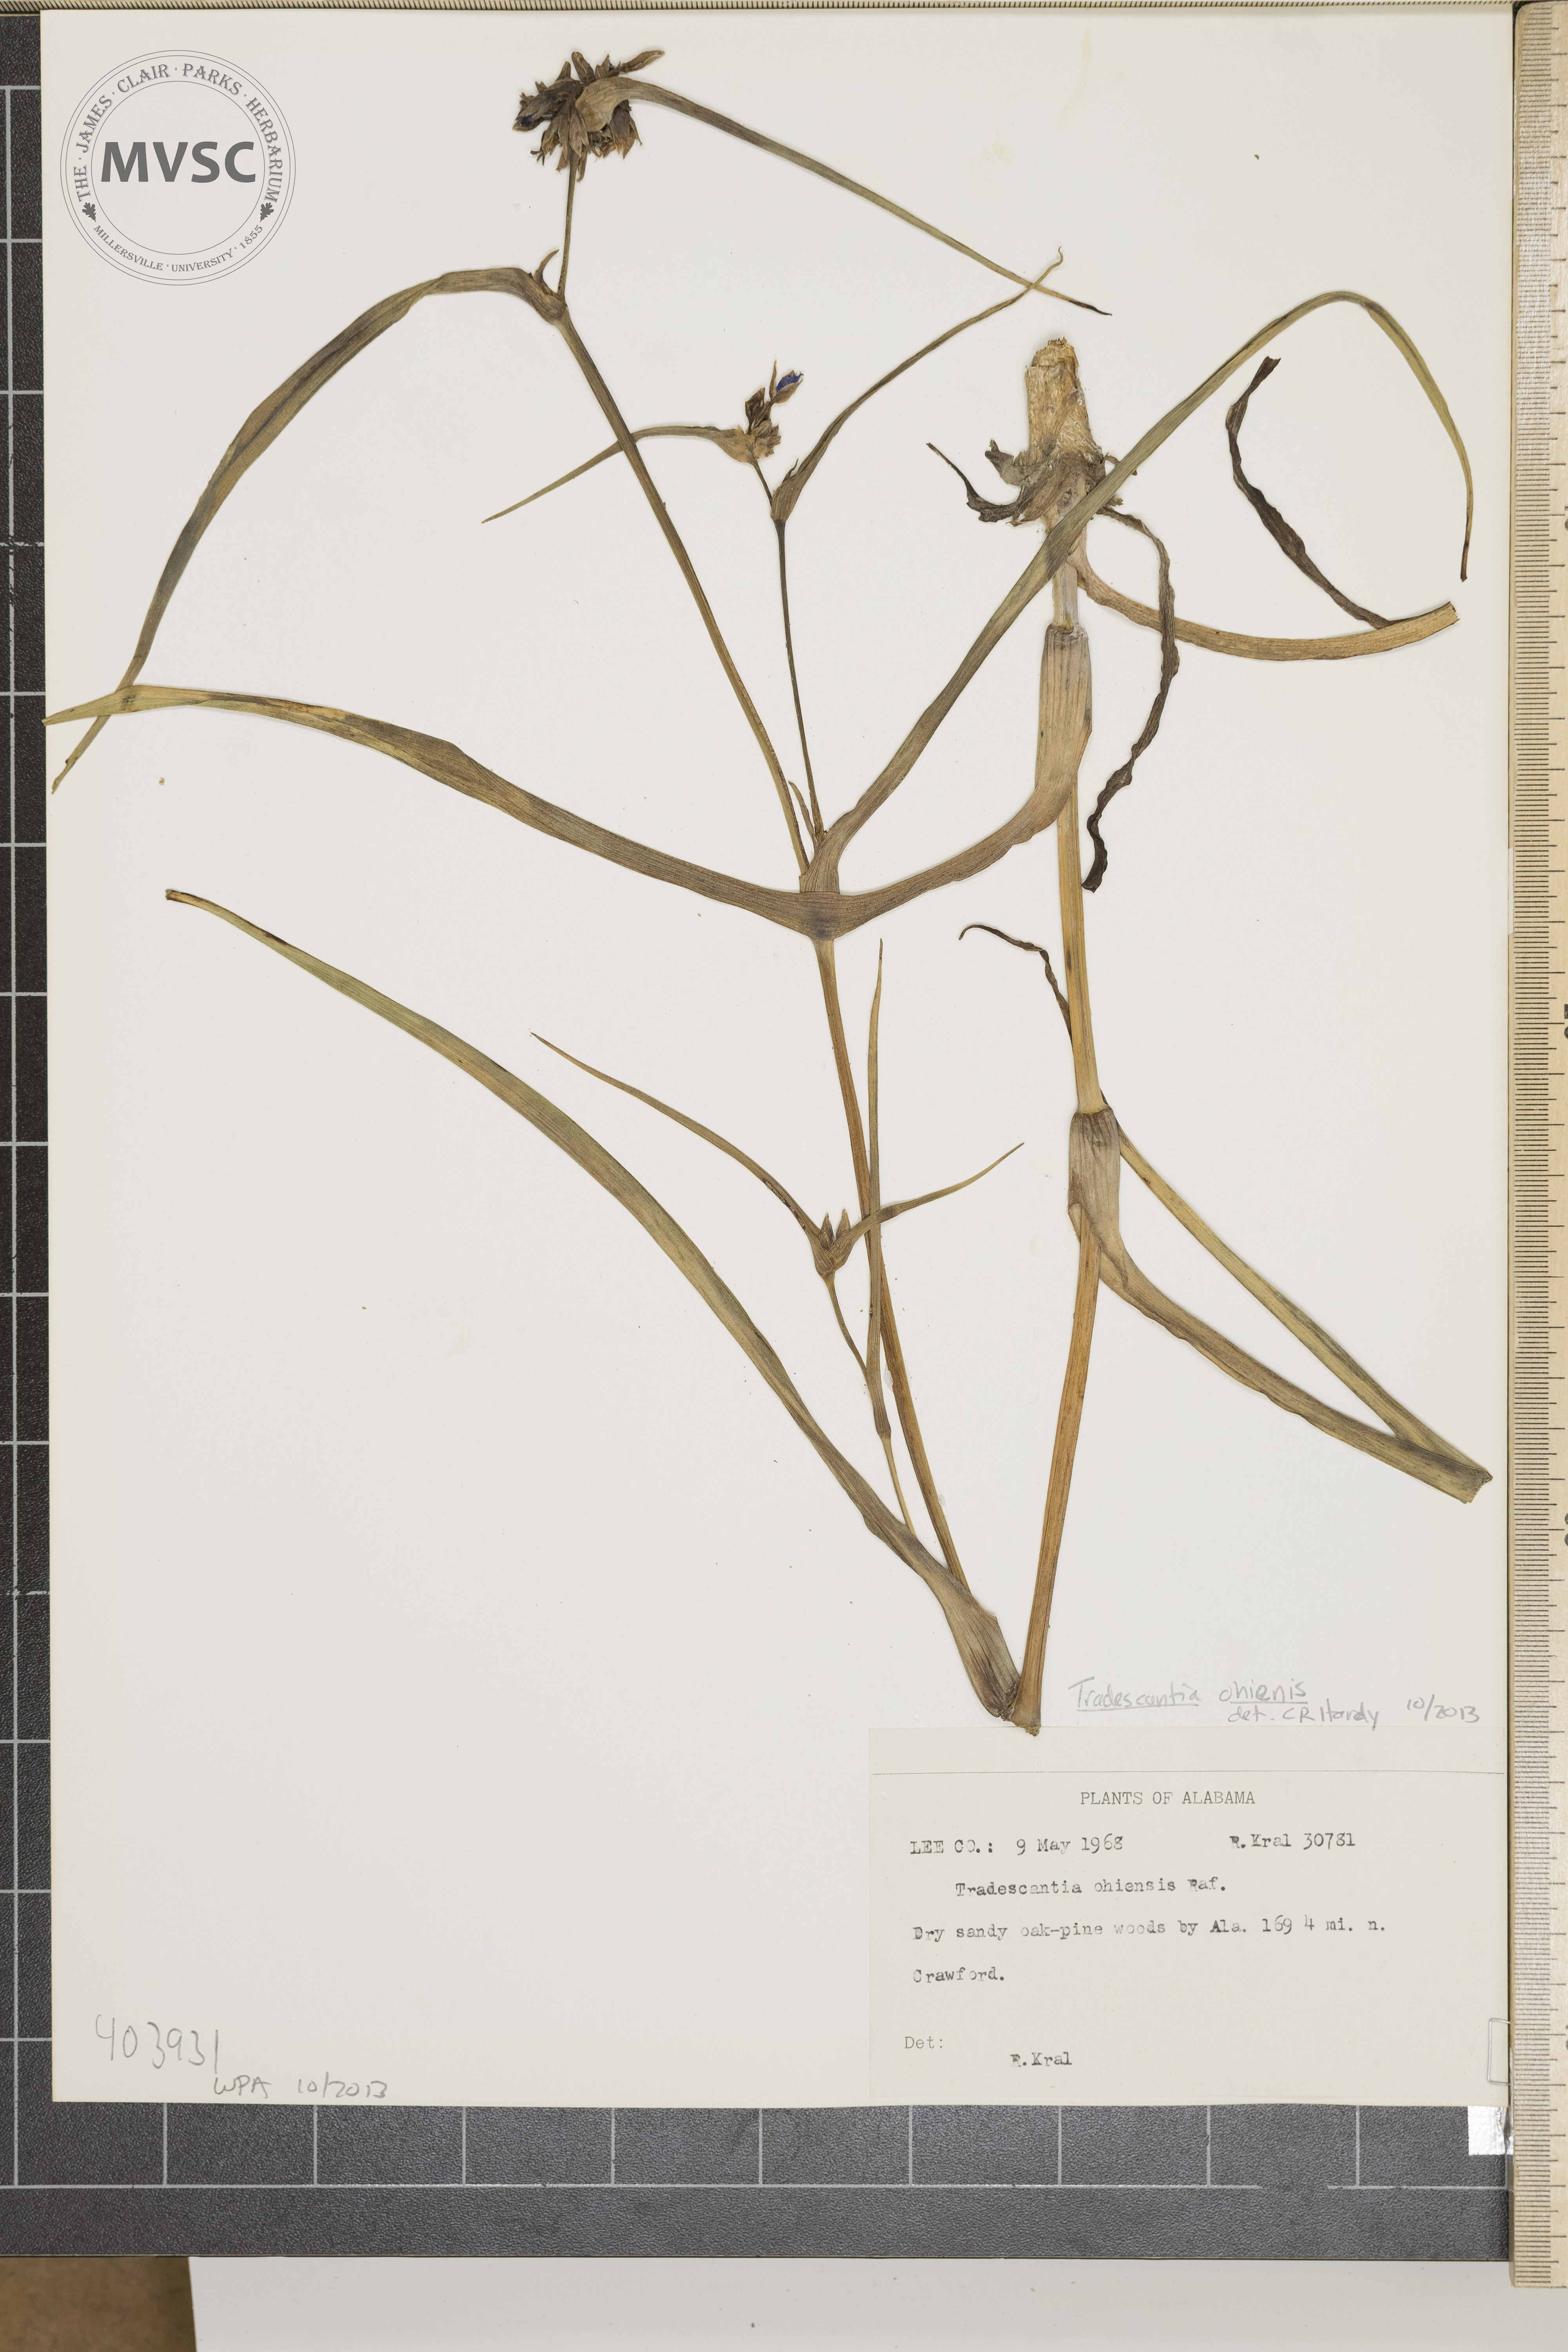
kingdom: Plantae
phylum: Tracheophyta
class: Liliopsida
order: Commelinales
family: Commelinaceae
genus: Tradescantia
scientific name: Tradescantia ohiensis
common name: Ohio Spiderwort
